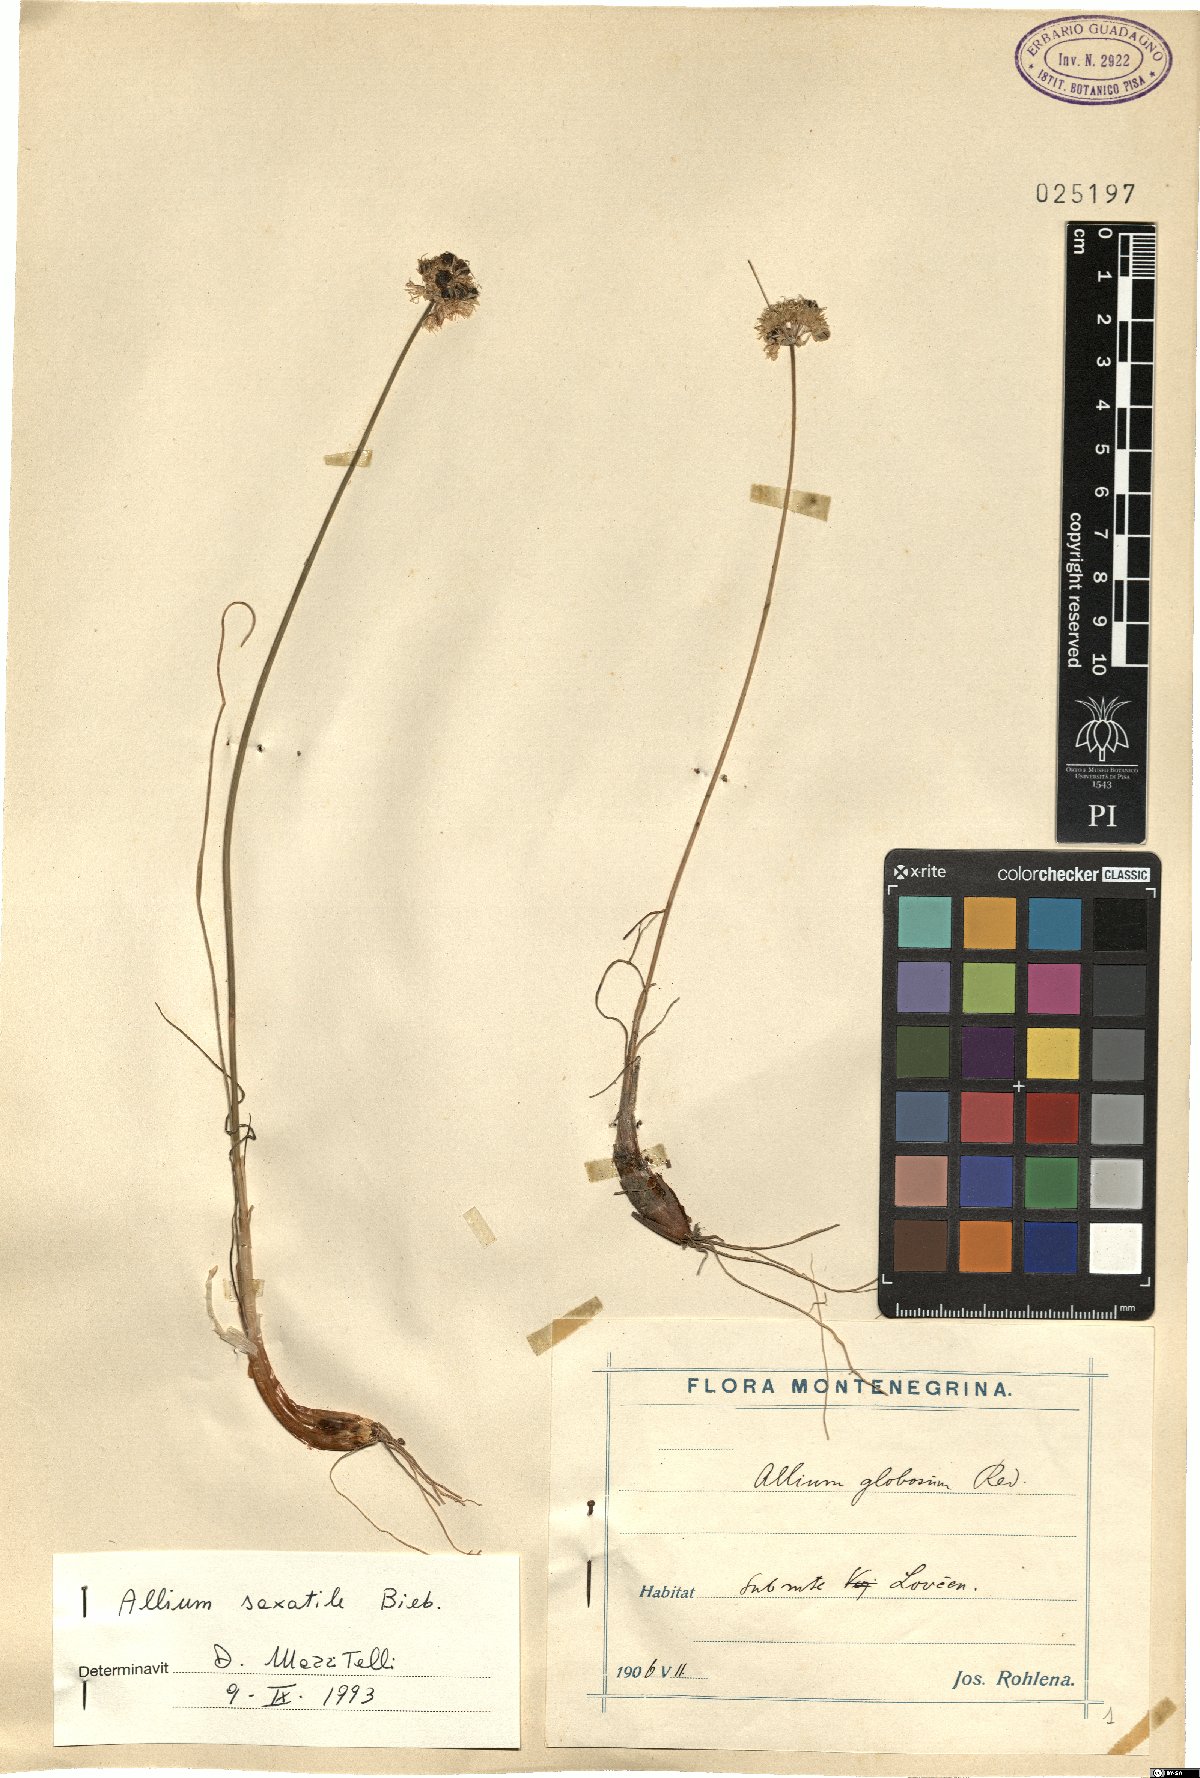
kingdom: Plantae
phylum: Tracheophyta
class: Liliopsida
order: Asparagales
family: Amaryllidaceae
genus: Allium
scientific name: Allium saxatile
